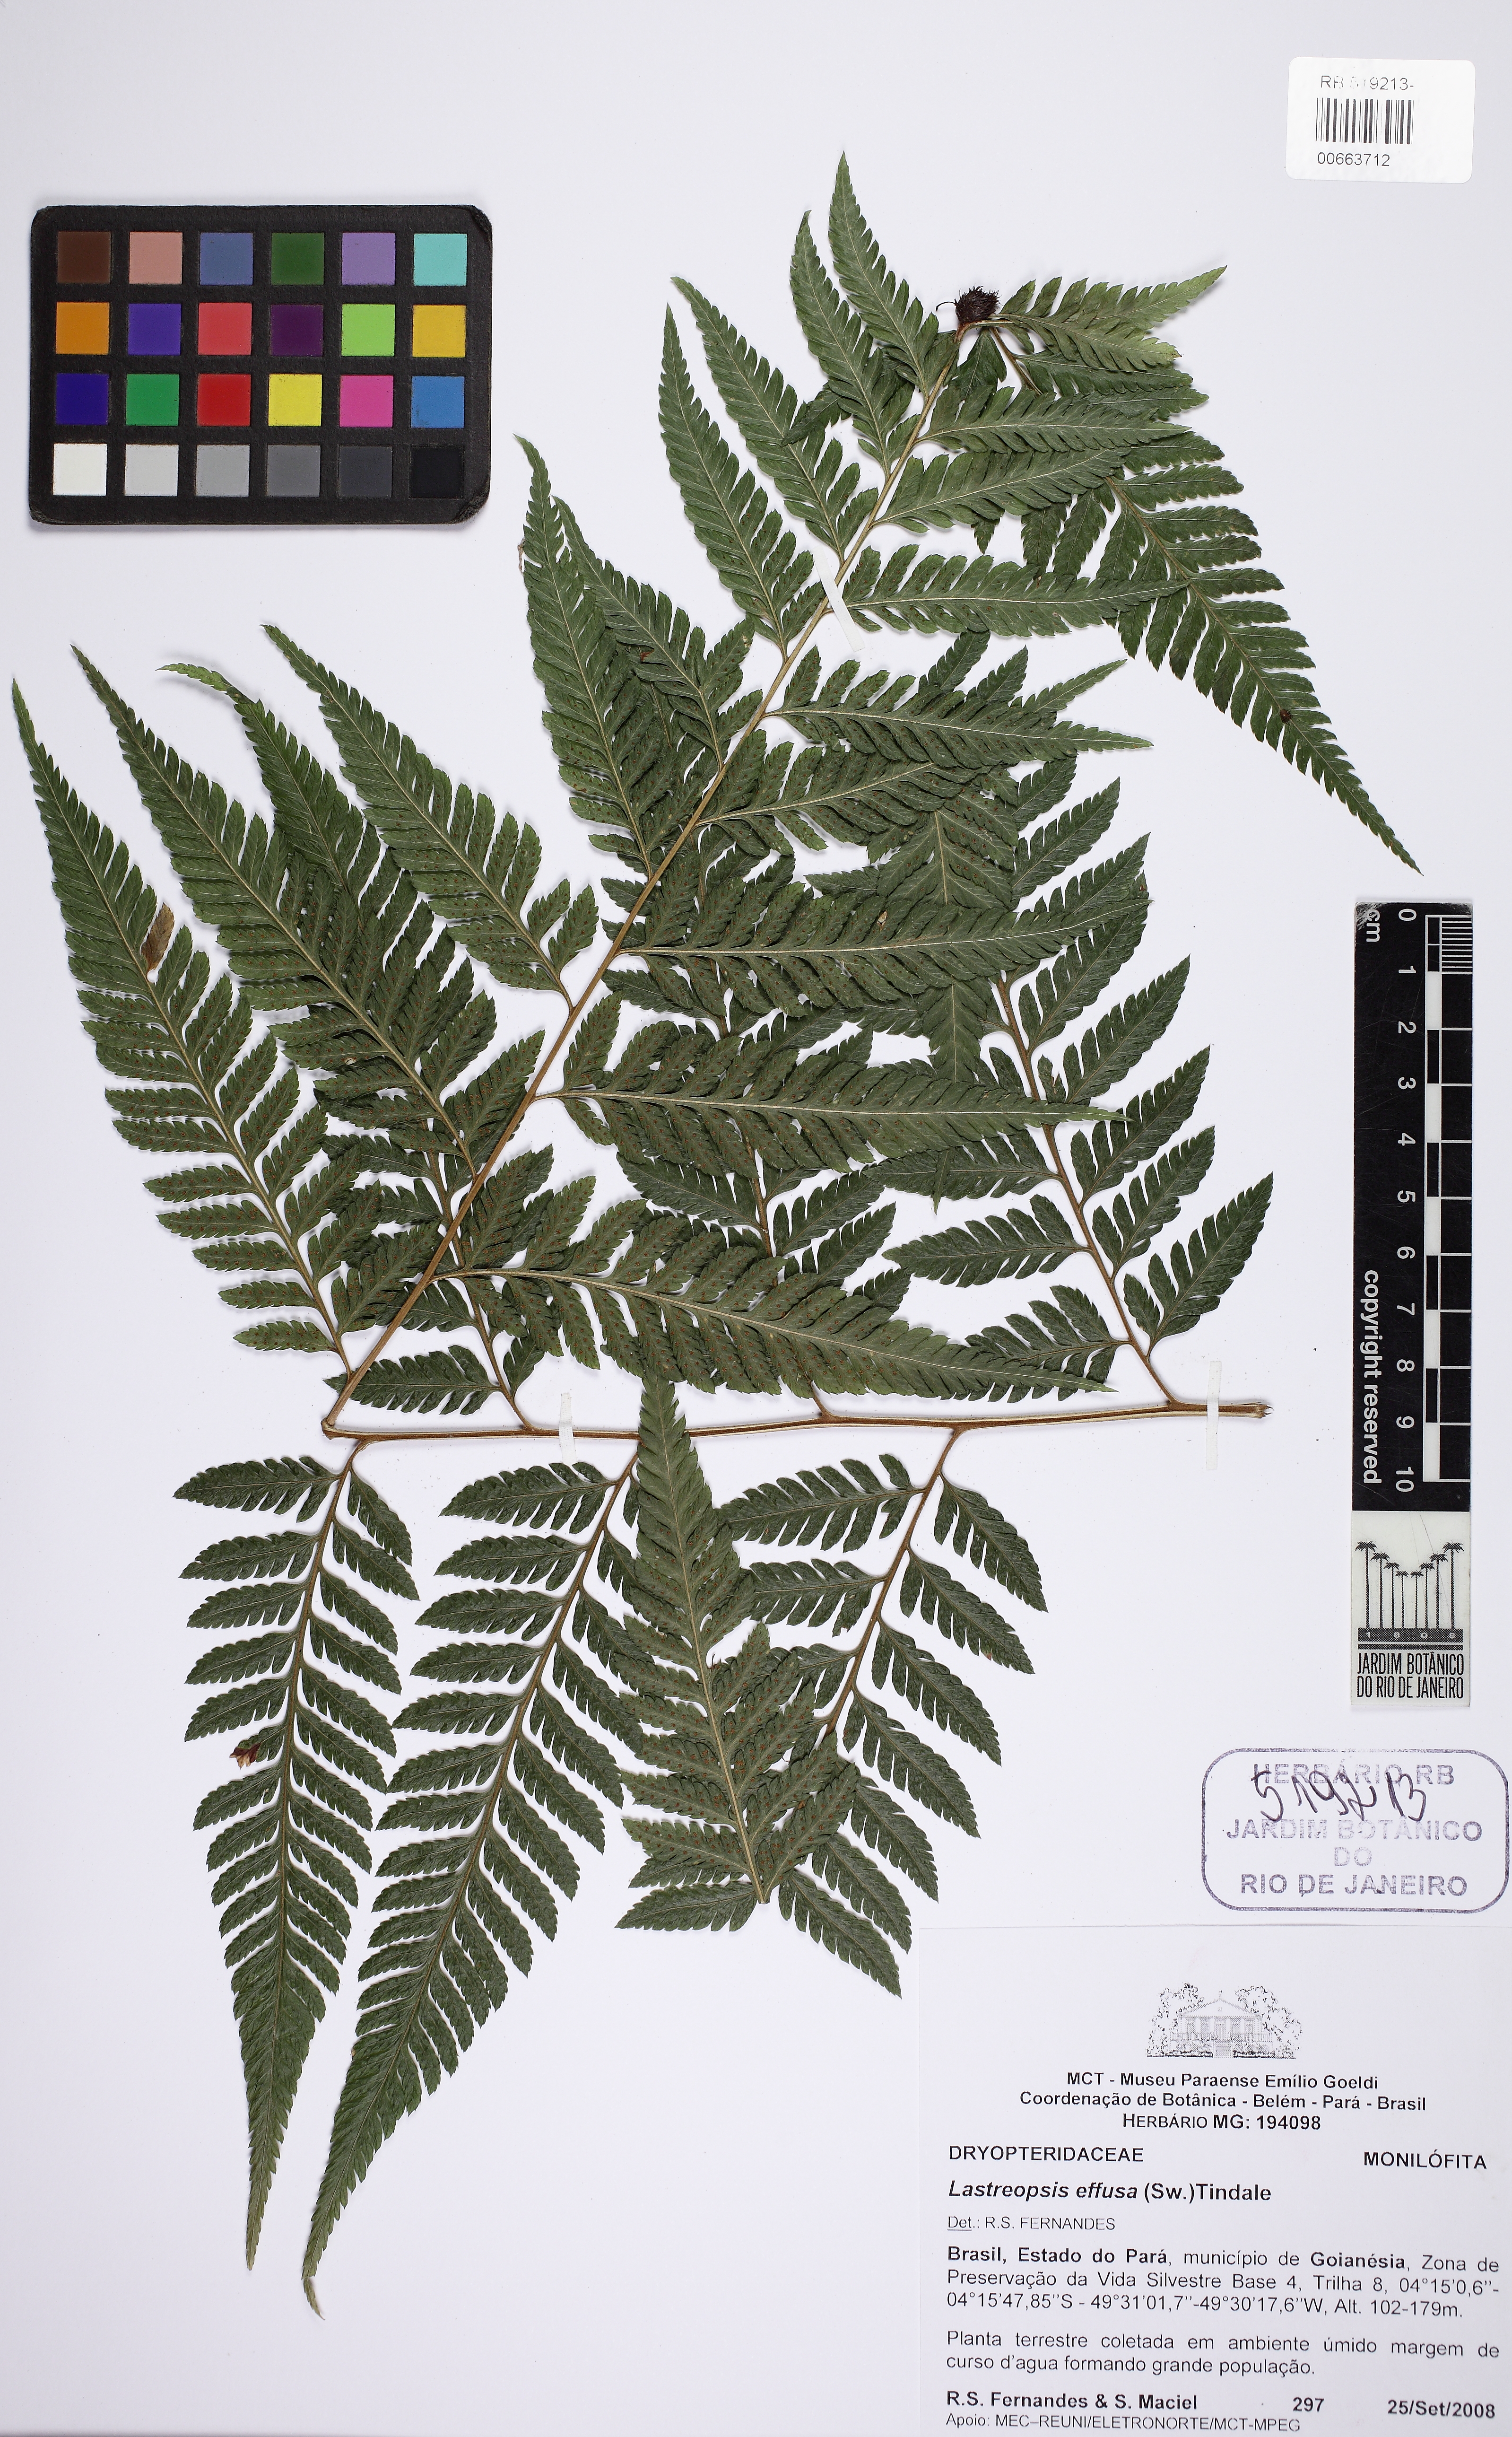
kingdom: Plantae
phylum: Tracheophyta
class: Polypodiopsida
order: Polypodiales
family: Dryopteridaceae
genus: Parapolystichum
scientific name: Parapolystichum effusum
